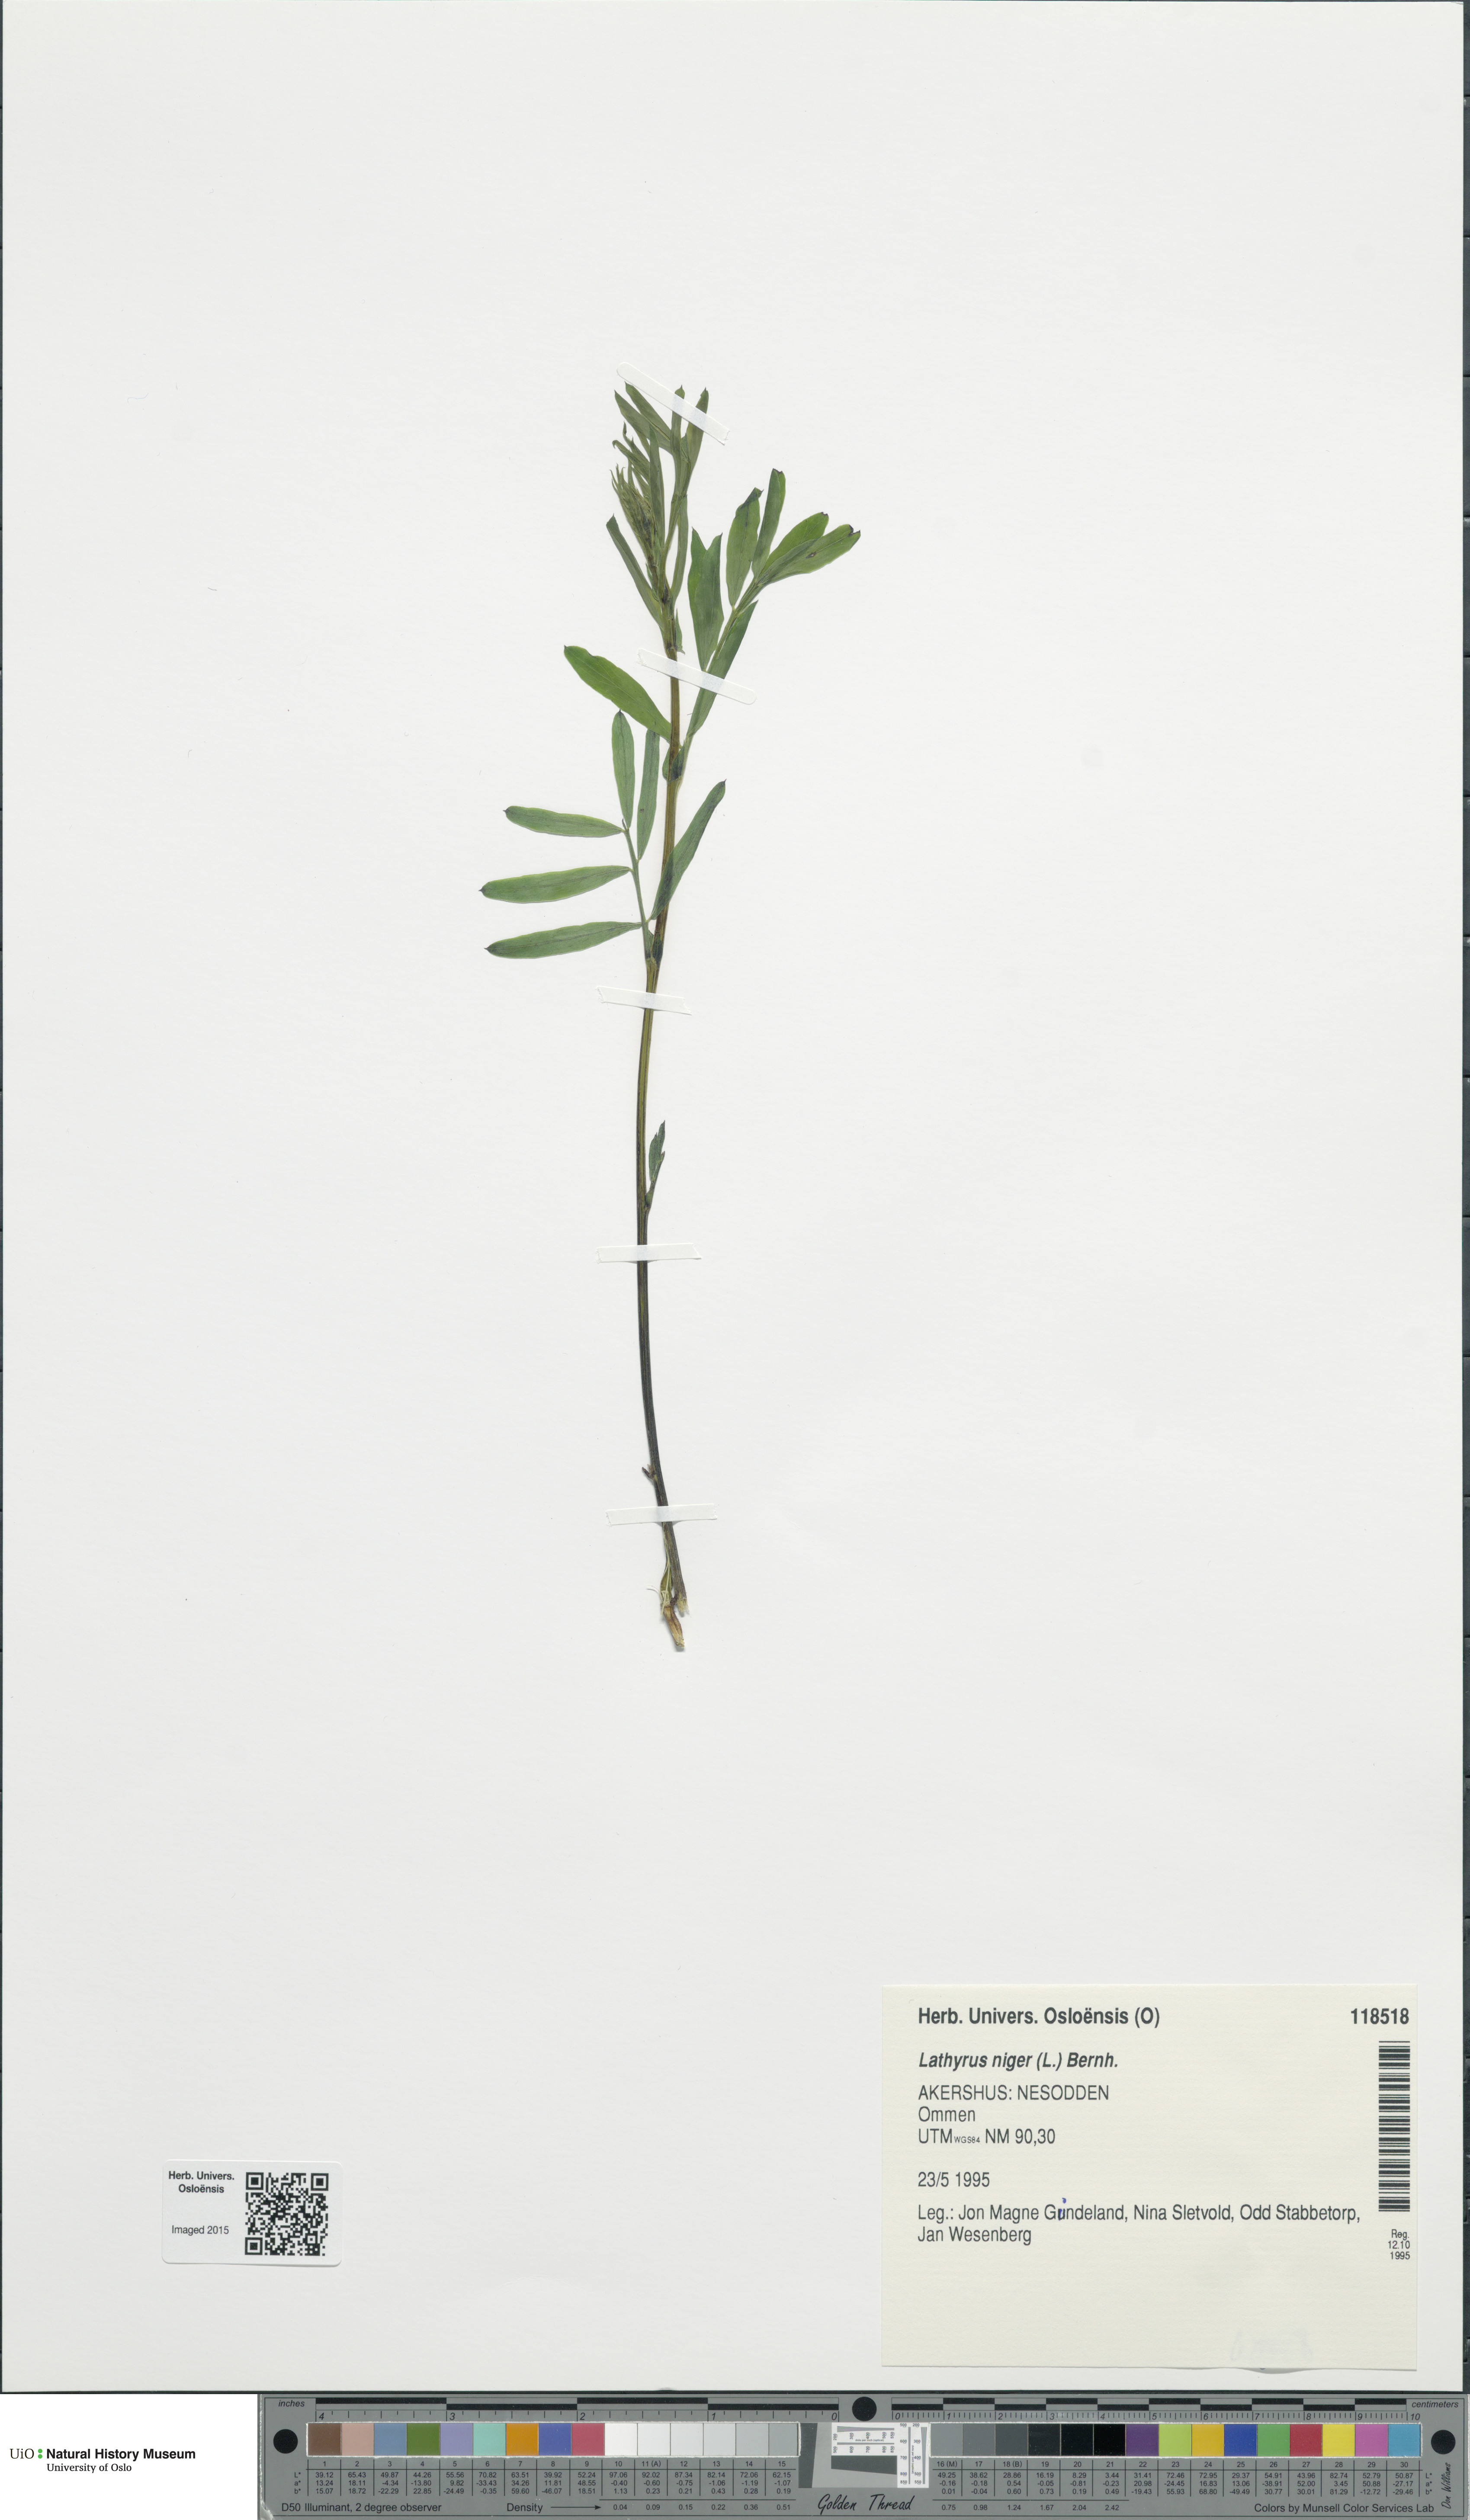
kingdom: Plantae
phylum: Tracheophyta
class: Magnoliopsida
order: Fabales
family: Fabaceae
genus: Lathyrus
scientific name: Lathyrus niger
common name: Black pea
